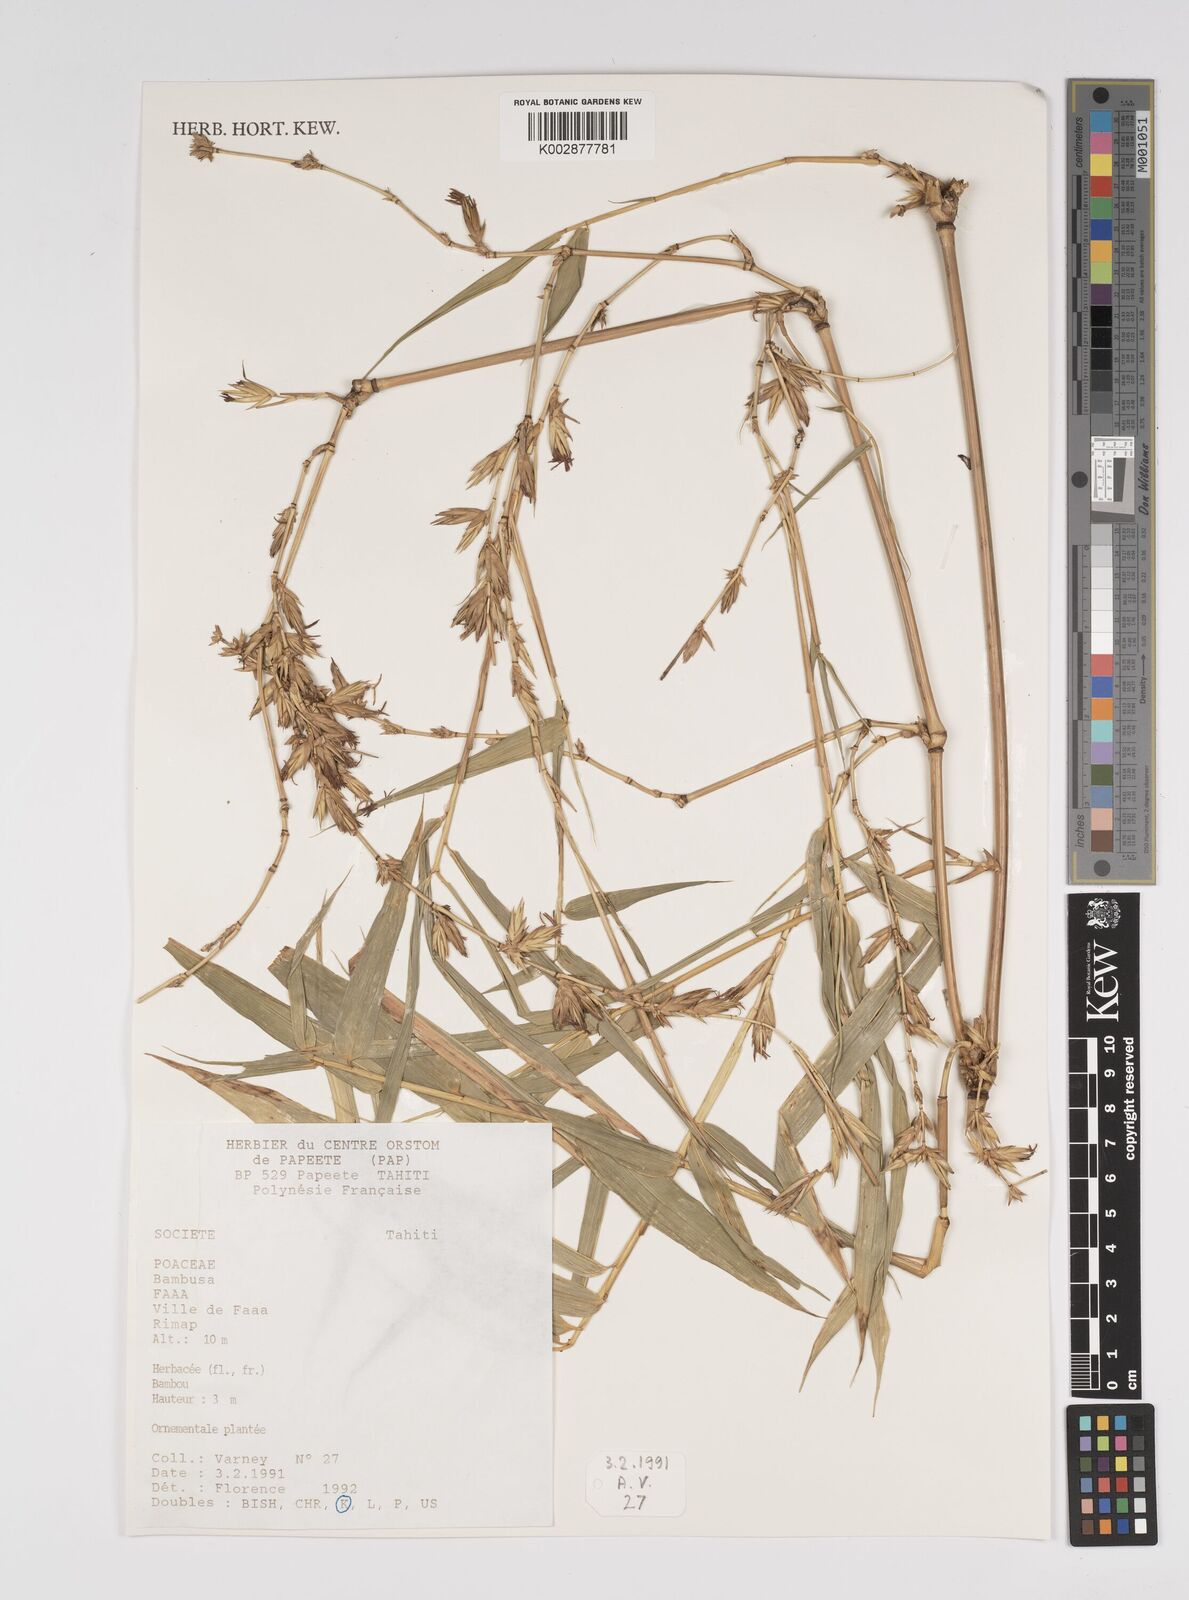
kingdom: Plantae
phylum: Tracheophyta
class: Liliopsida
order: Poales
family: Poaceae
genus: Bambusa
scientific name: Bambusa
